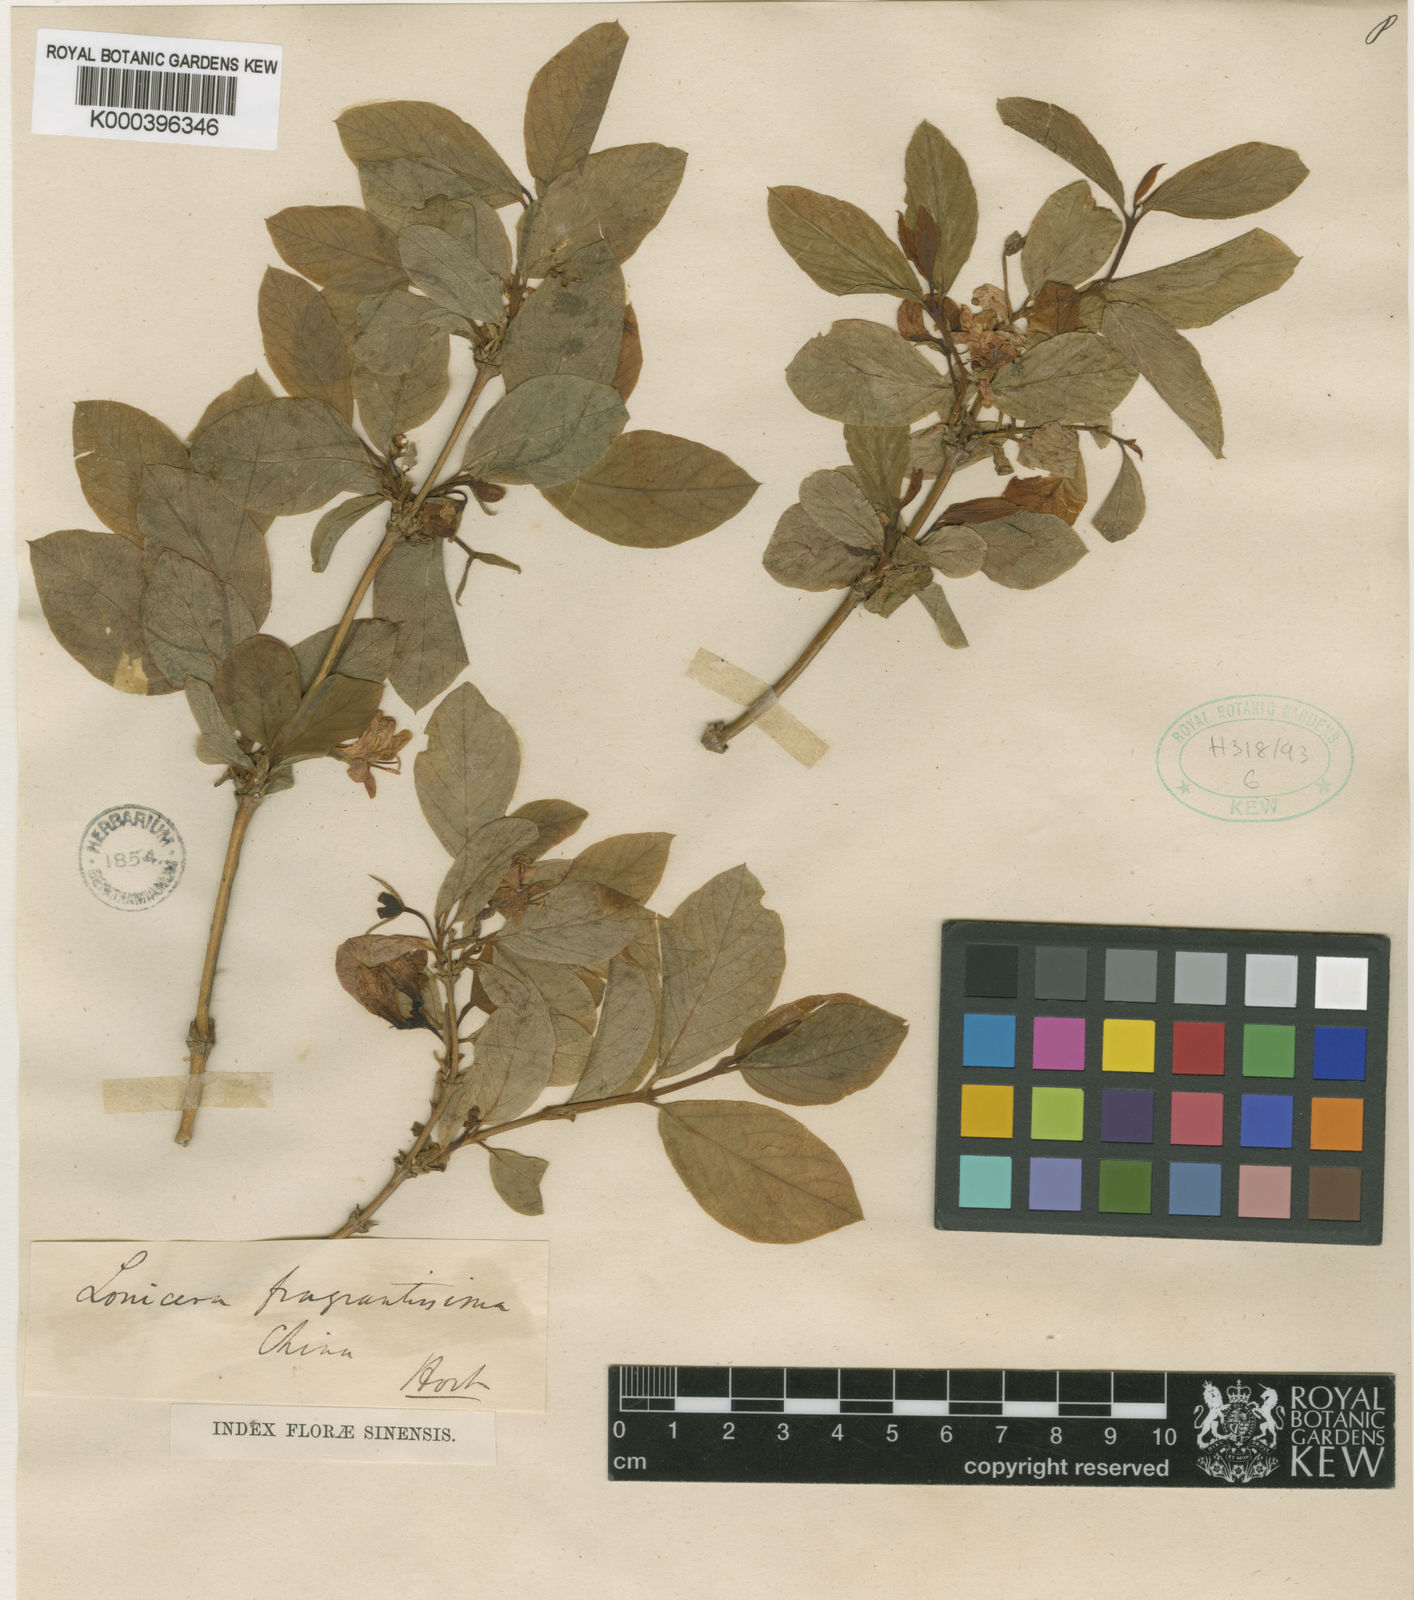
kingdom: Plantae
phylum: Tracheophyta
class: Magnoliopsida
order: Dipsacales
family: Caprifoliaceae
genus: Lonicera
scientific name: Lonicera fragrantissima
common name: Fragrant honeysuckle
